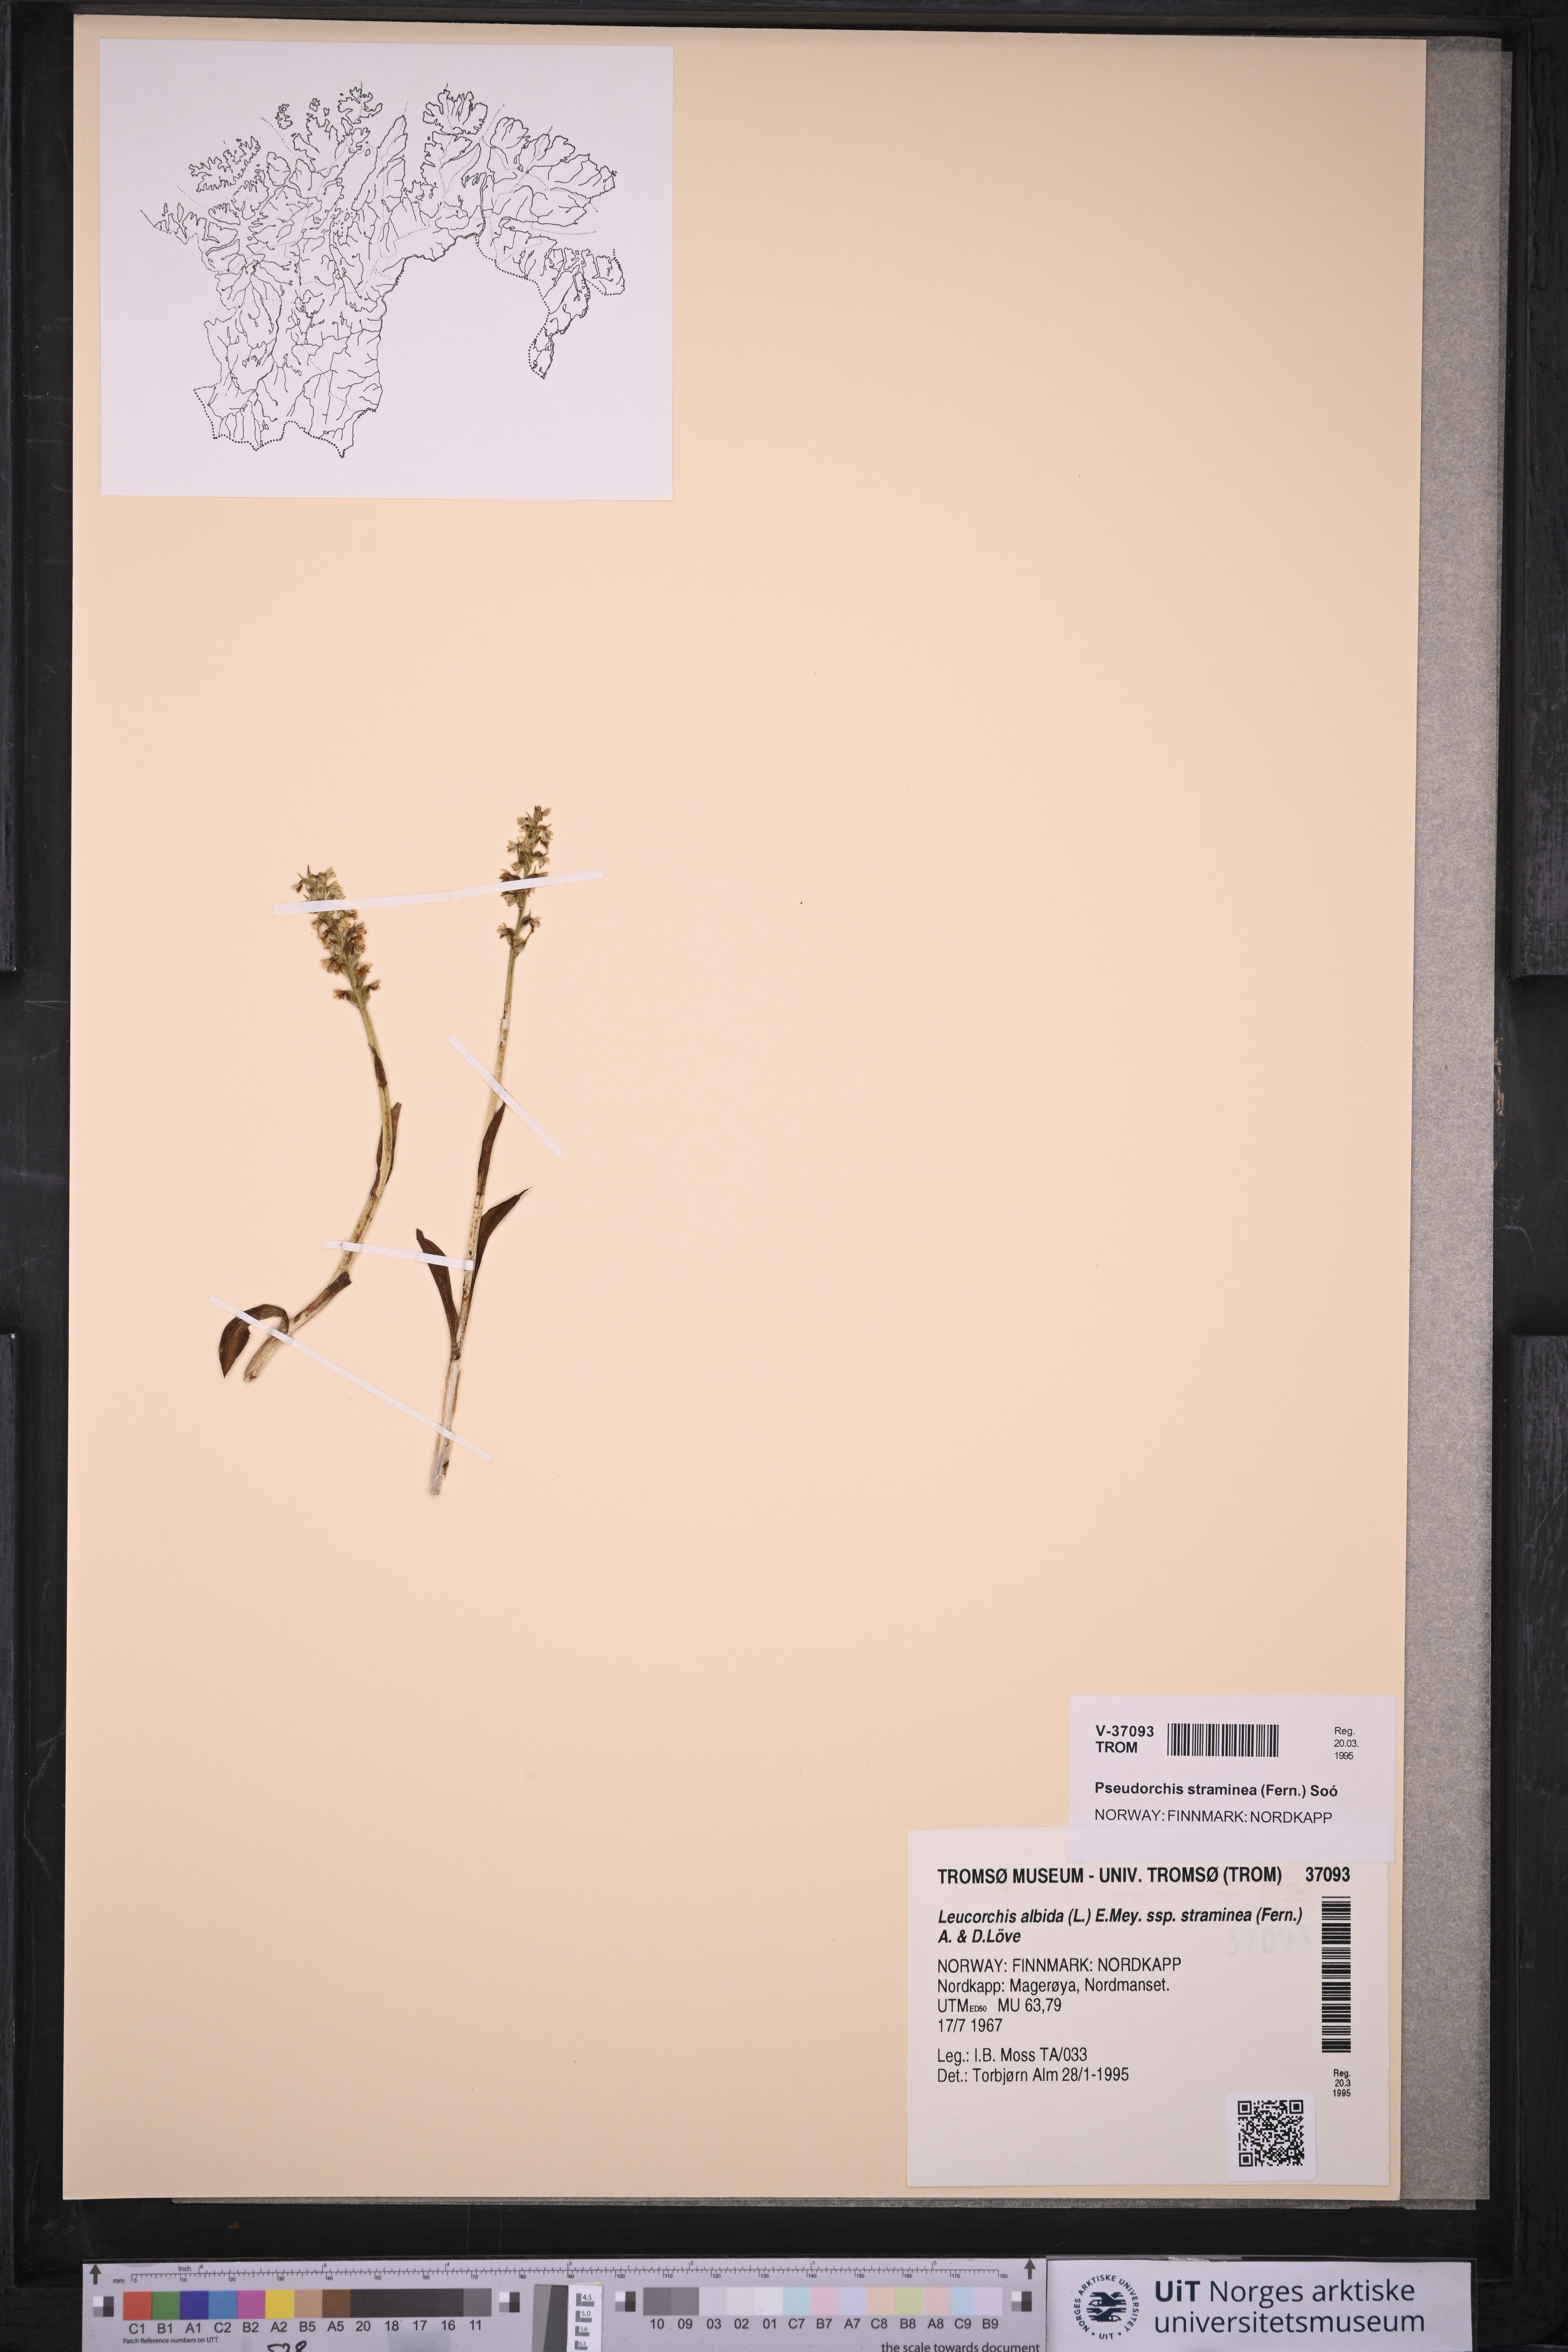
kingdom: Plantae
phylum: Tracheophyta
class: Liliopsida
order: Asparagales
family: Orchidaceae
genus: Pseudorchis
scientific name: Pseudorchis straminea
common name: Vanilla-scented bog orchid
